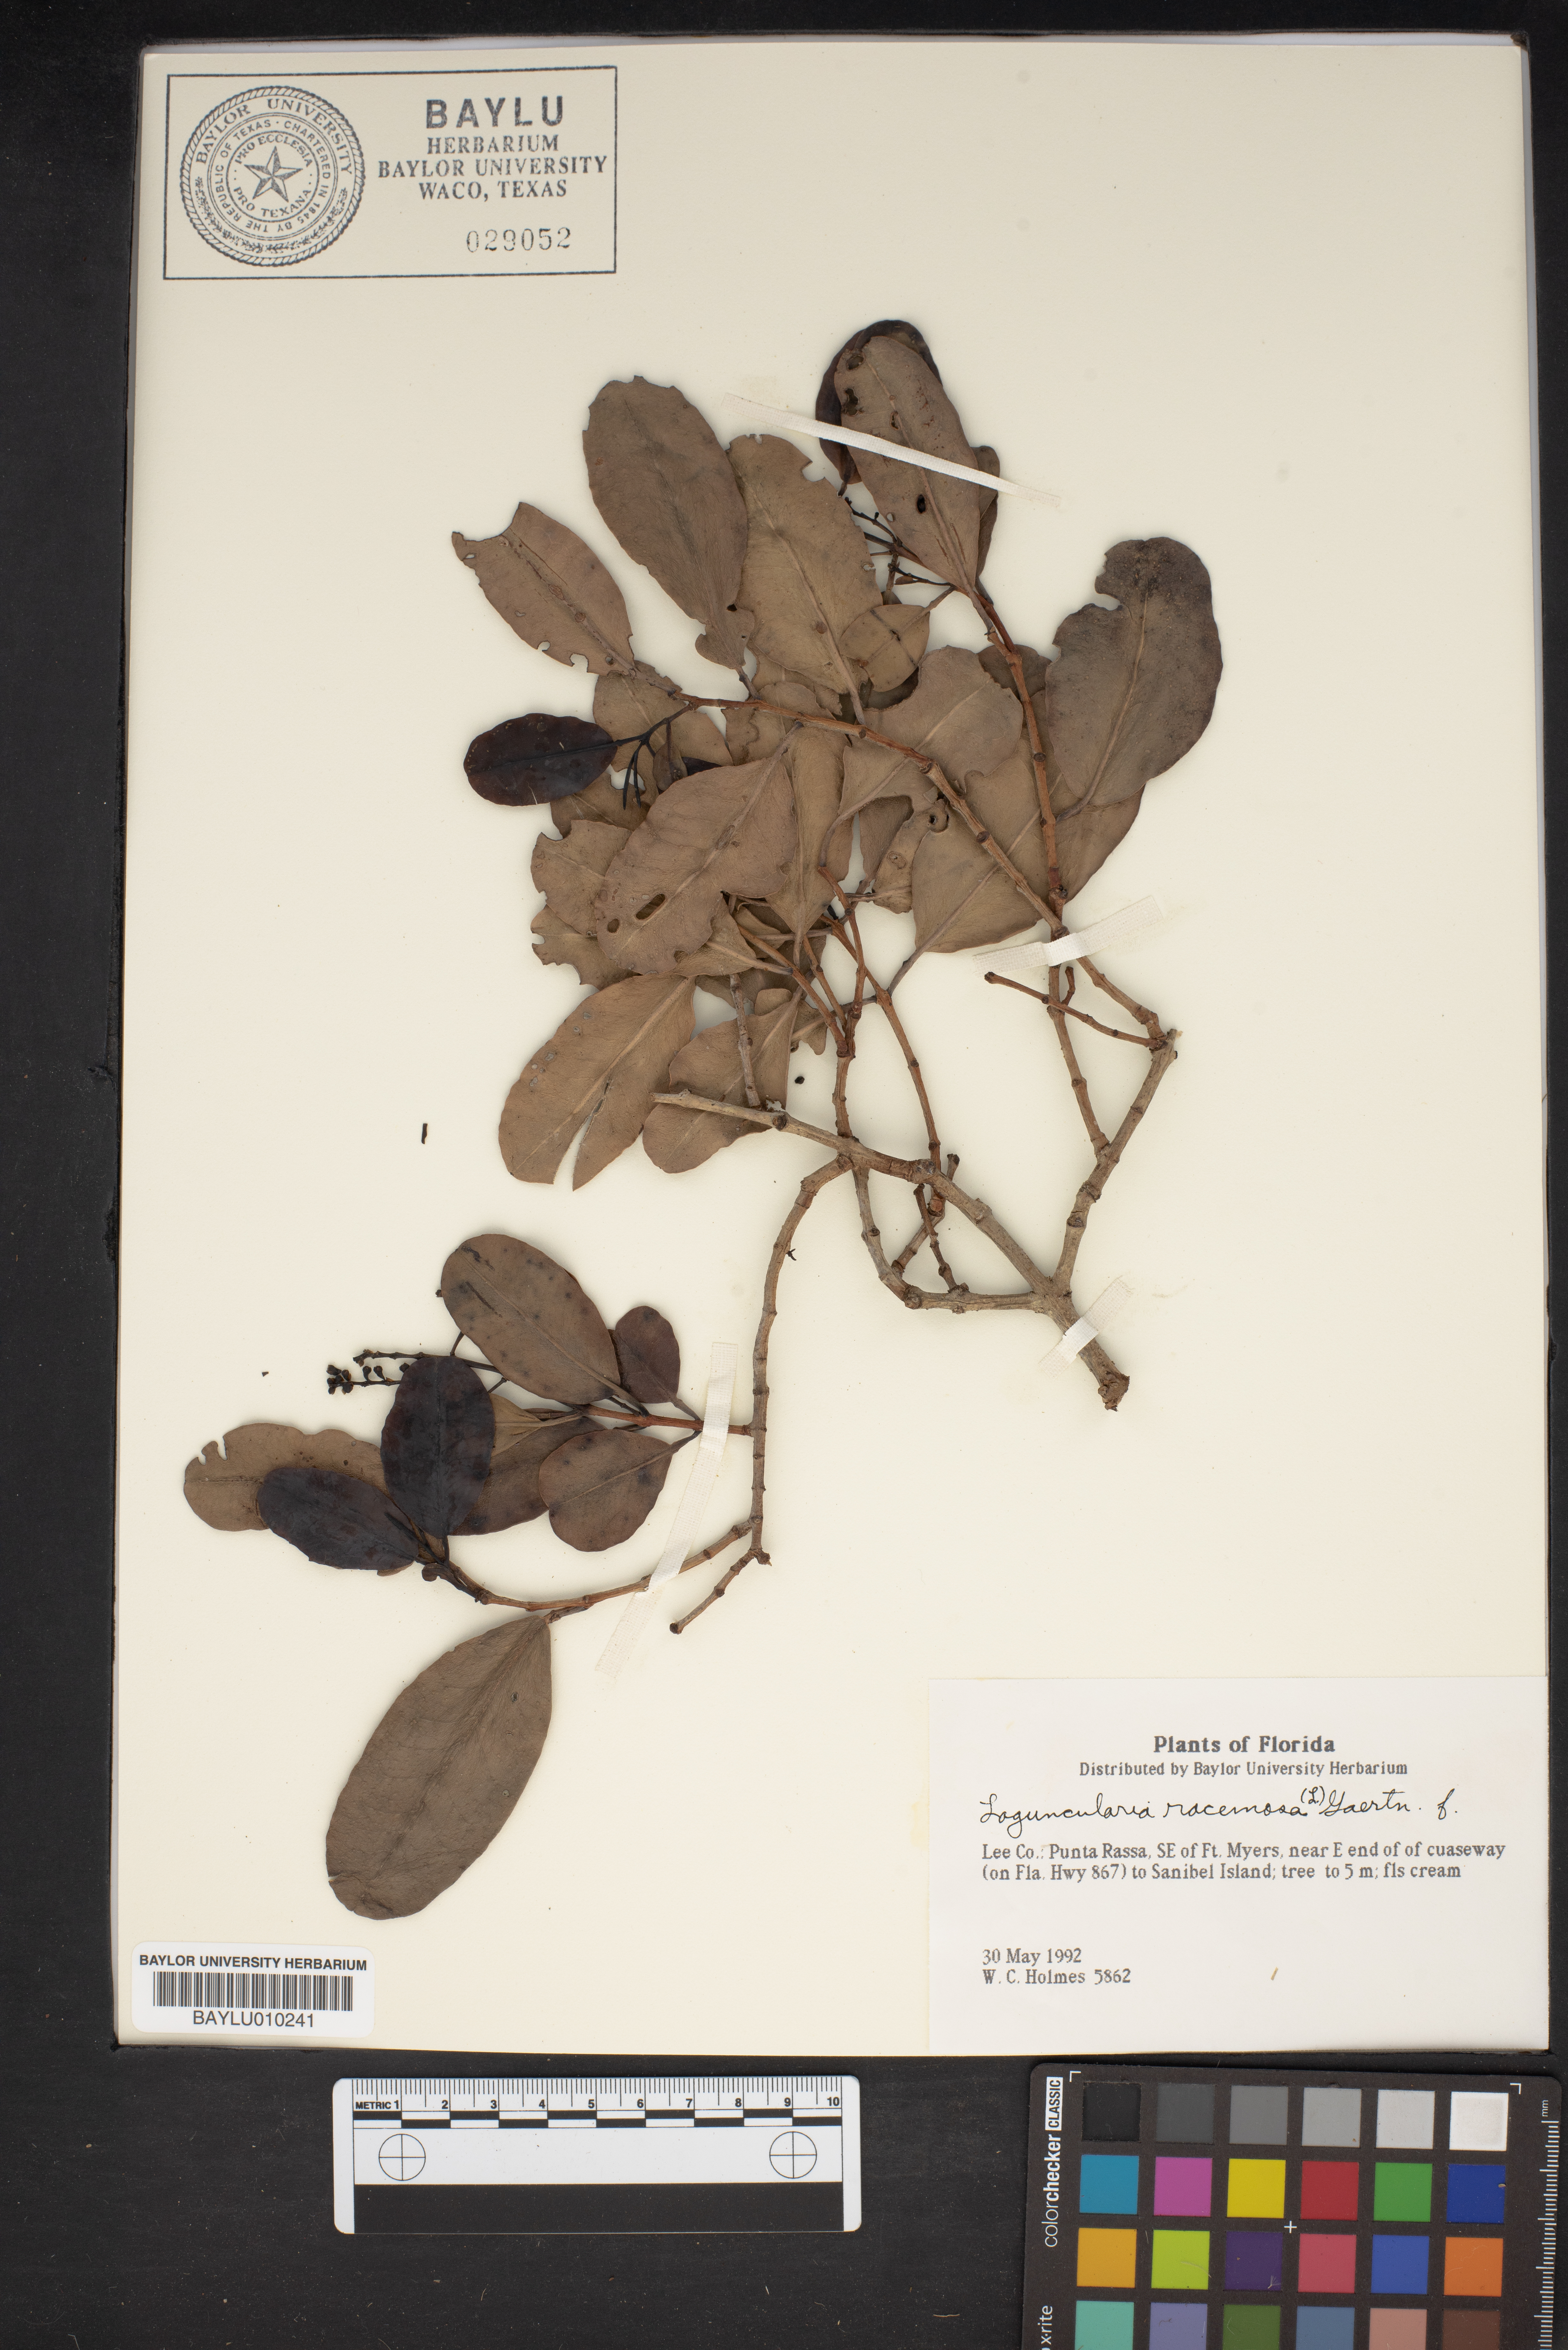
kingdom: Plantae
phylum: Tracheophyta
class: Magnoliopsida
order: Myrtales
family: Combretaceae
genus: Laguncularia
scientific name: Laguncularia racemosa
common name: White mangrove
